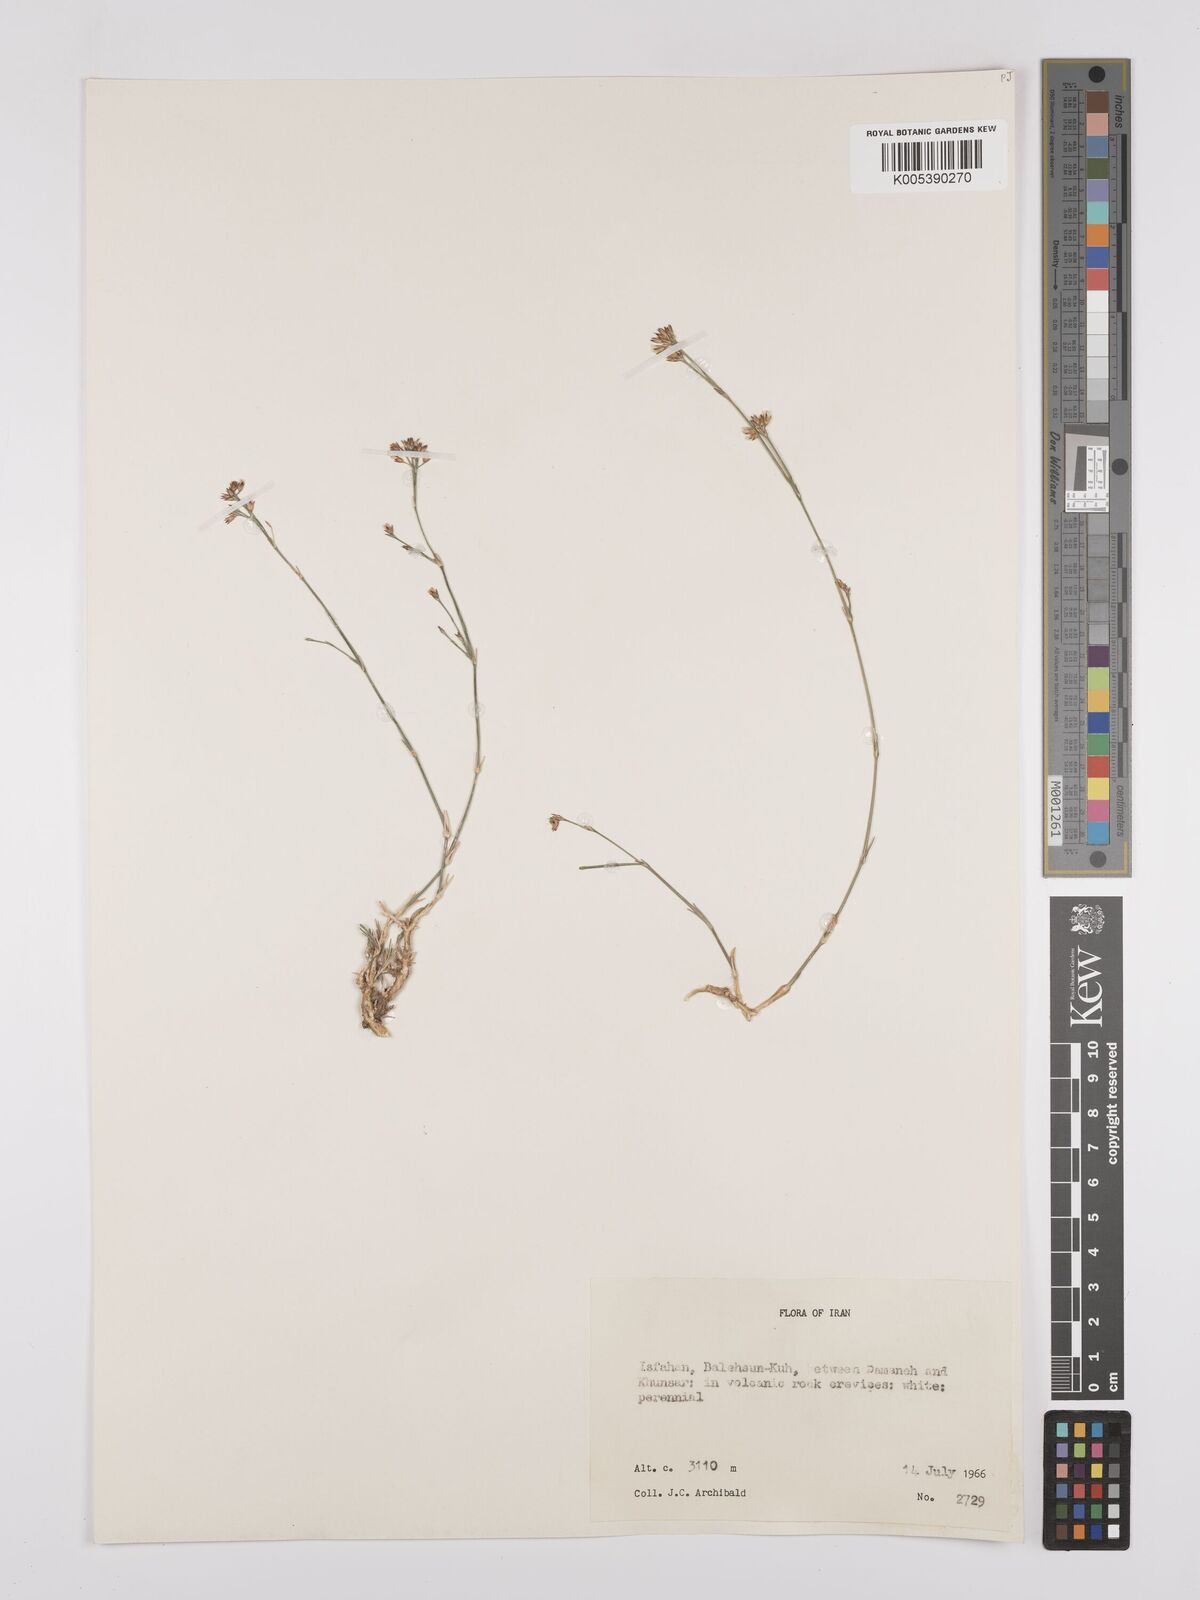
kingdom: Plantae
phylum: Tracheophyta
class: Magnoliopsida
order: Caryophyllales
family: Caryophyllaceae
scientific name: Caryophyllaceae
